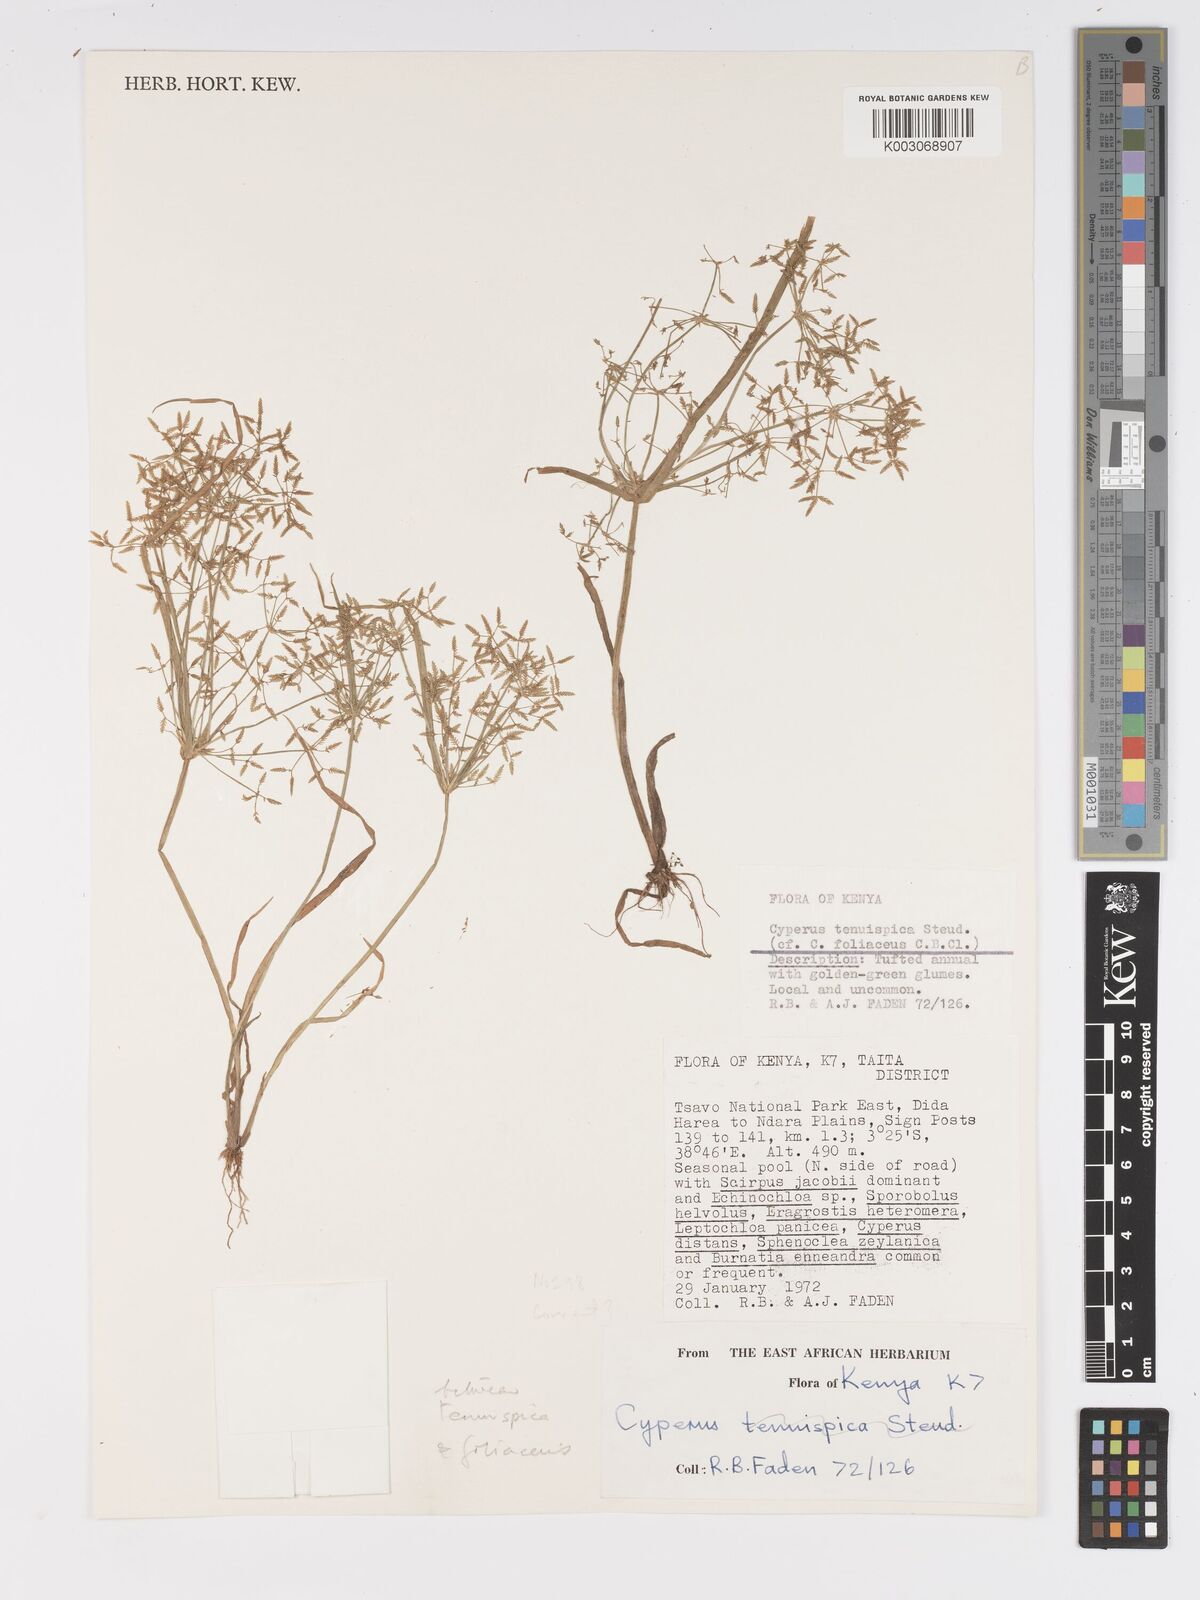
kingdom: Plantae
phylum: Tracheophyta
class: Liliopsida
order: Poales
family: Cyperaceae
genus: Cyperus
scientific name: Cyperus foliaceus
